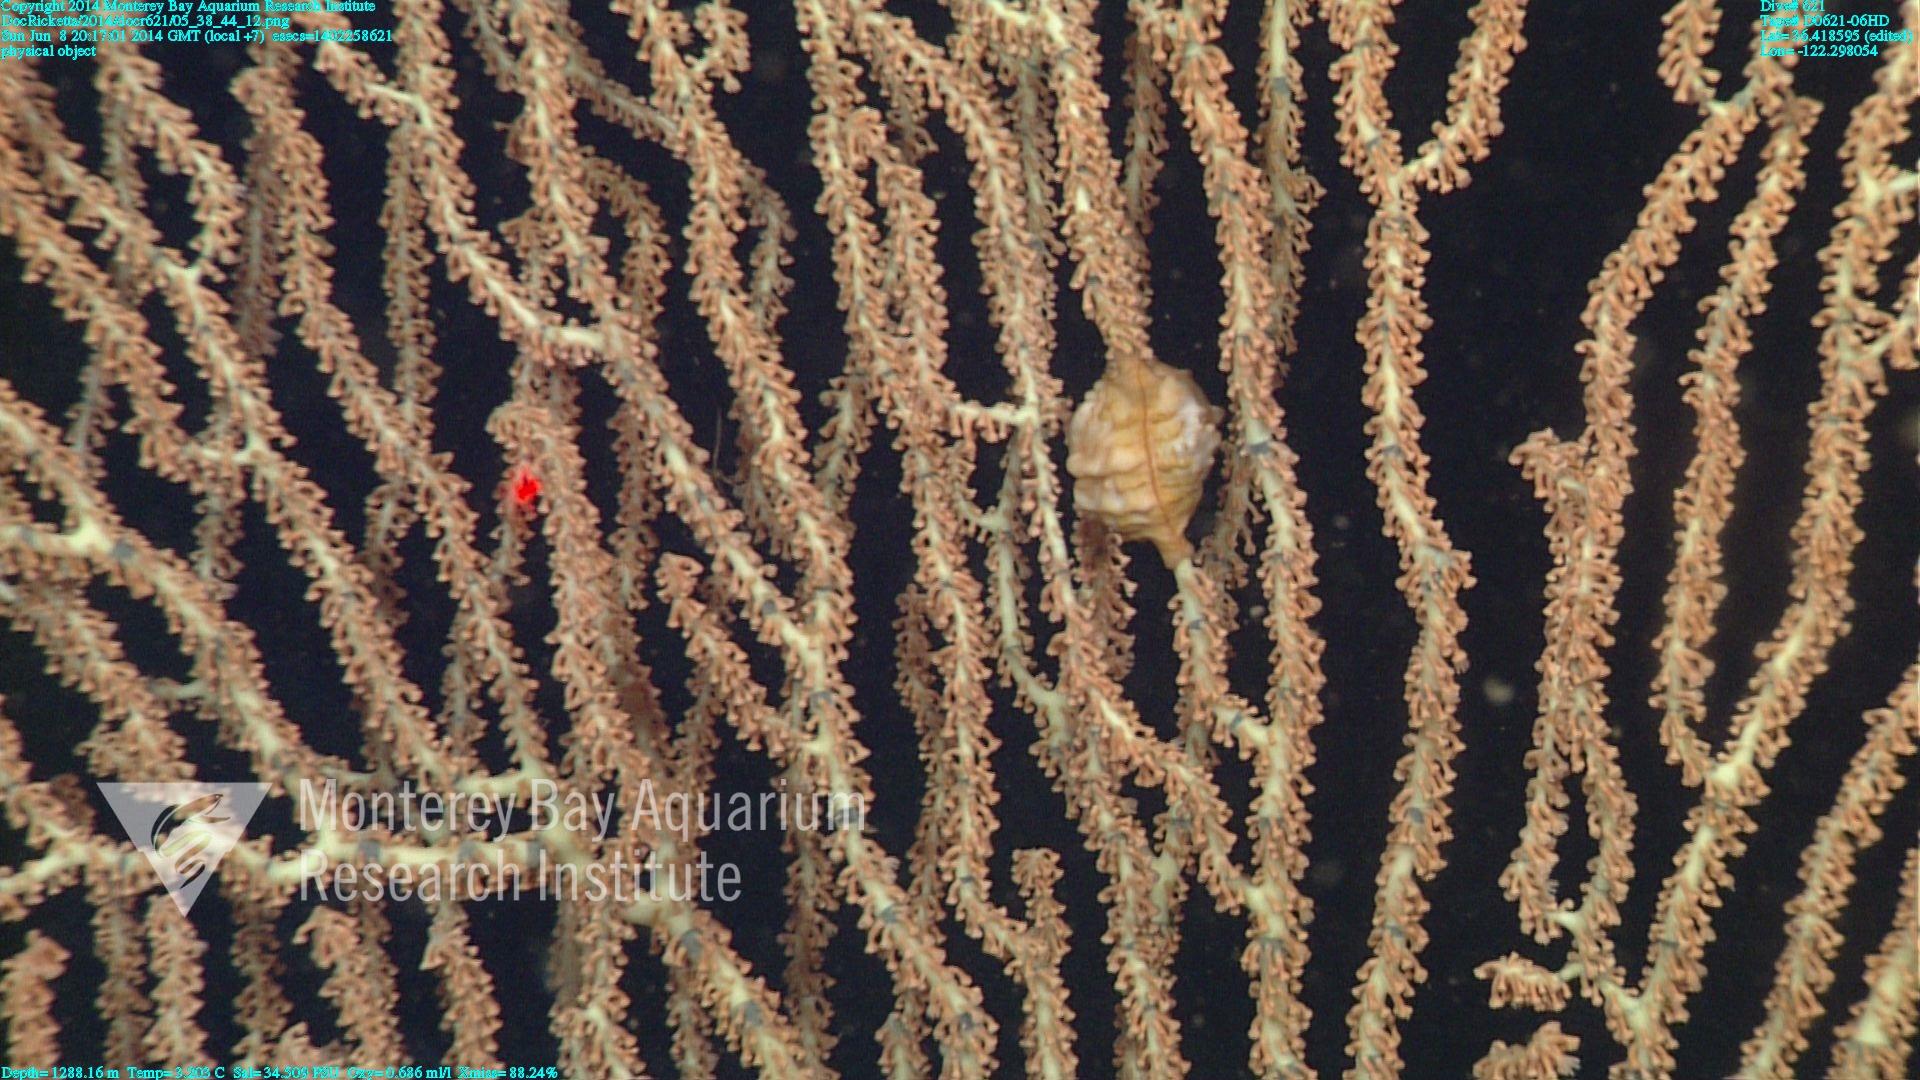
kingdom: Animalia
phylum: Cnidaria
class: Anthozoa
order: Scleralcyonacea
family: Keratoisididae
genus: Keratoisis
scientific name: Keratoisis
